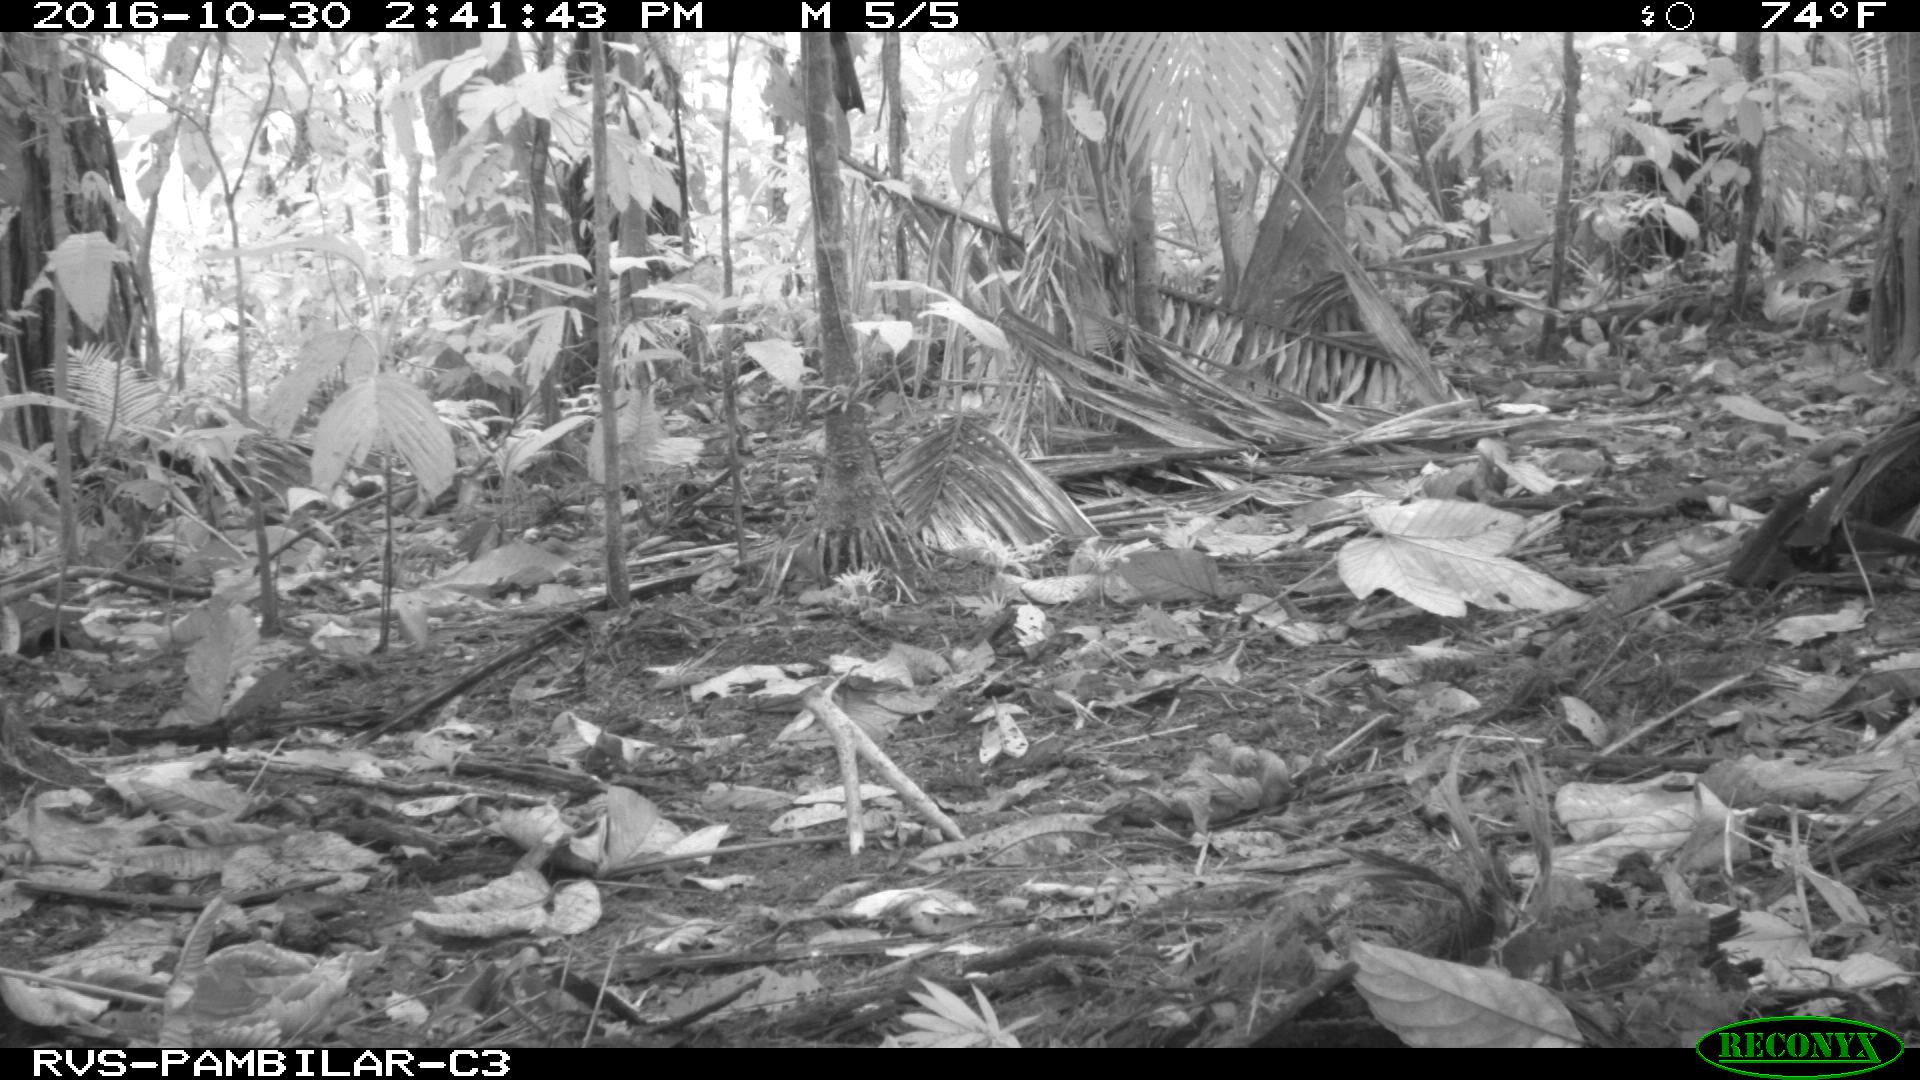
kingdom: Animalia
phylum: Chordata
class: Mammalia
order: Rodentia
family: Dasyproctidae
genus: Dasyprocta
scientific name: Dasyprocta punctata
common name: Central american agouti
